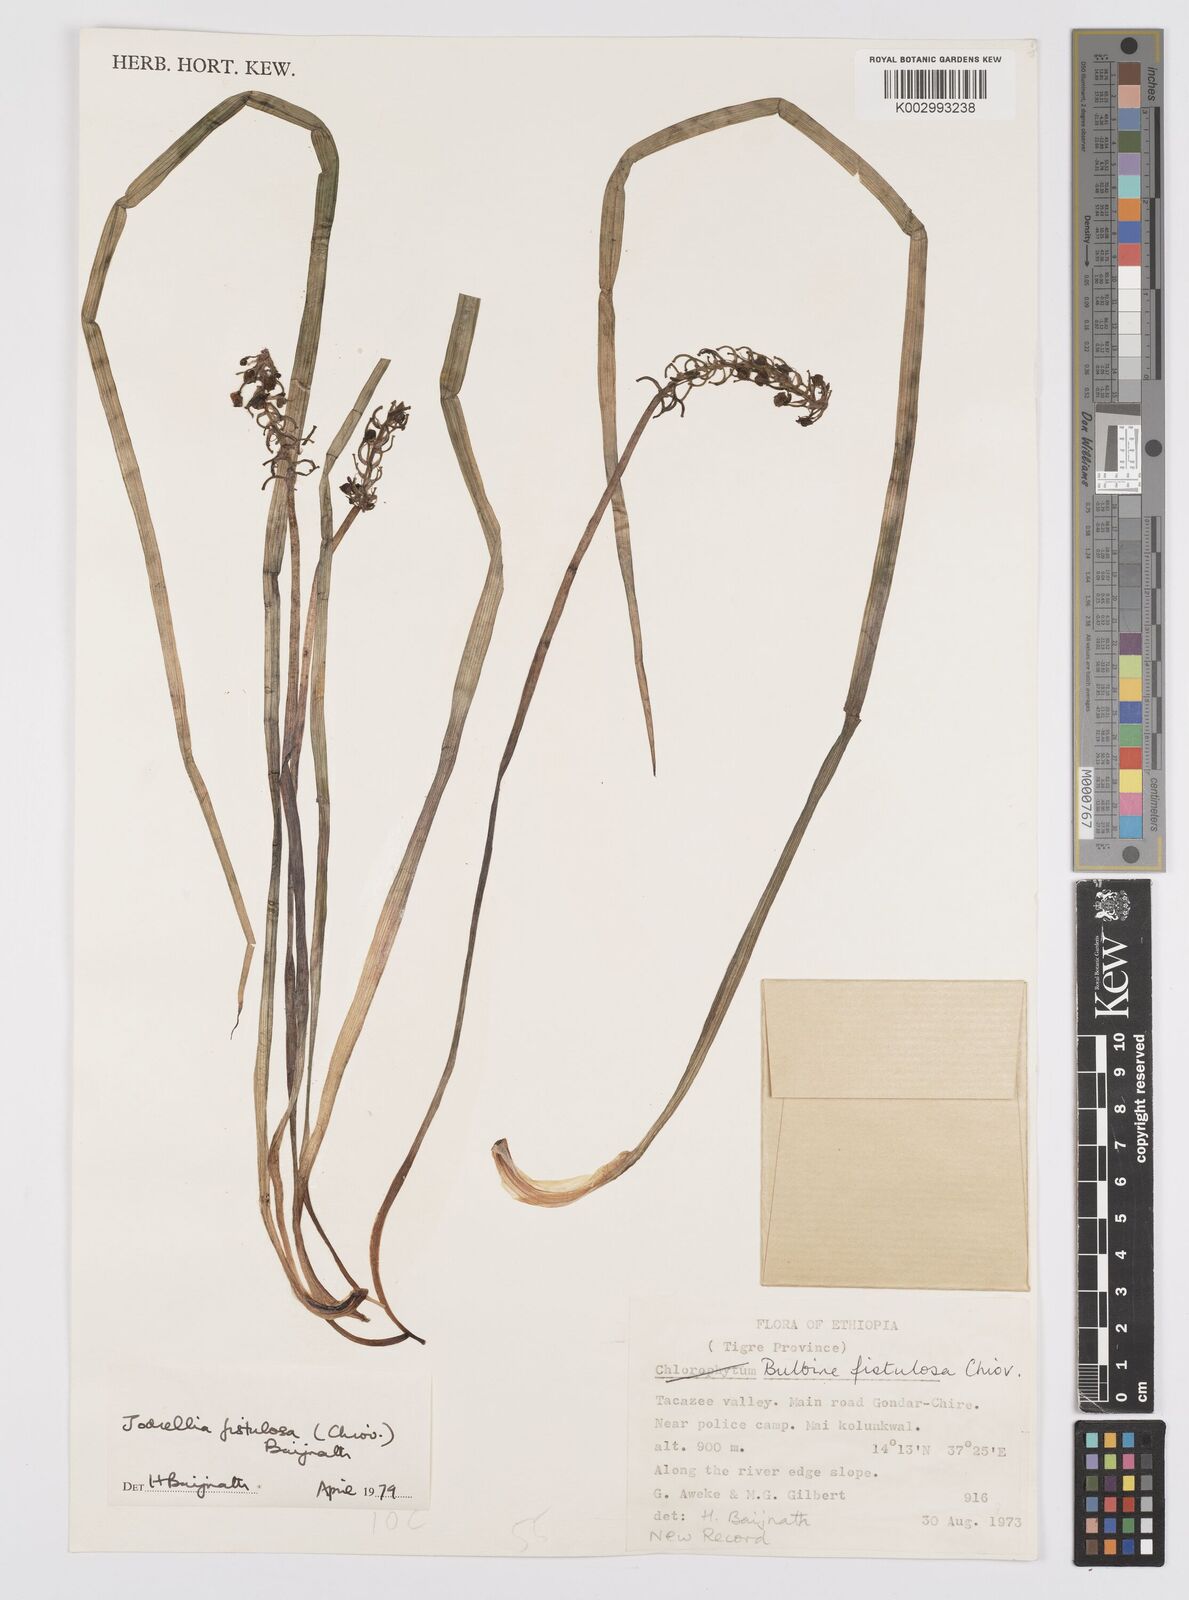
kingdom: Plantae
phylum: Tracheophyta
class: Liliopsida
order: Asparagales
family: Asphodelaceae
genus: Bulbine
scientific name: Bulbine fistulosa
